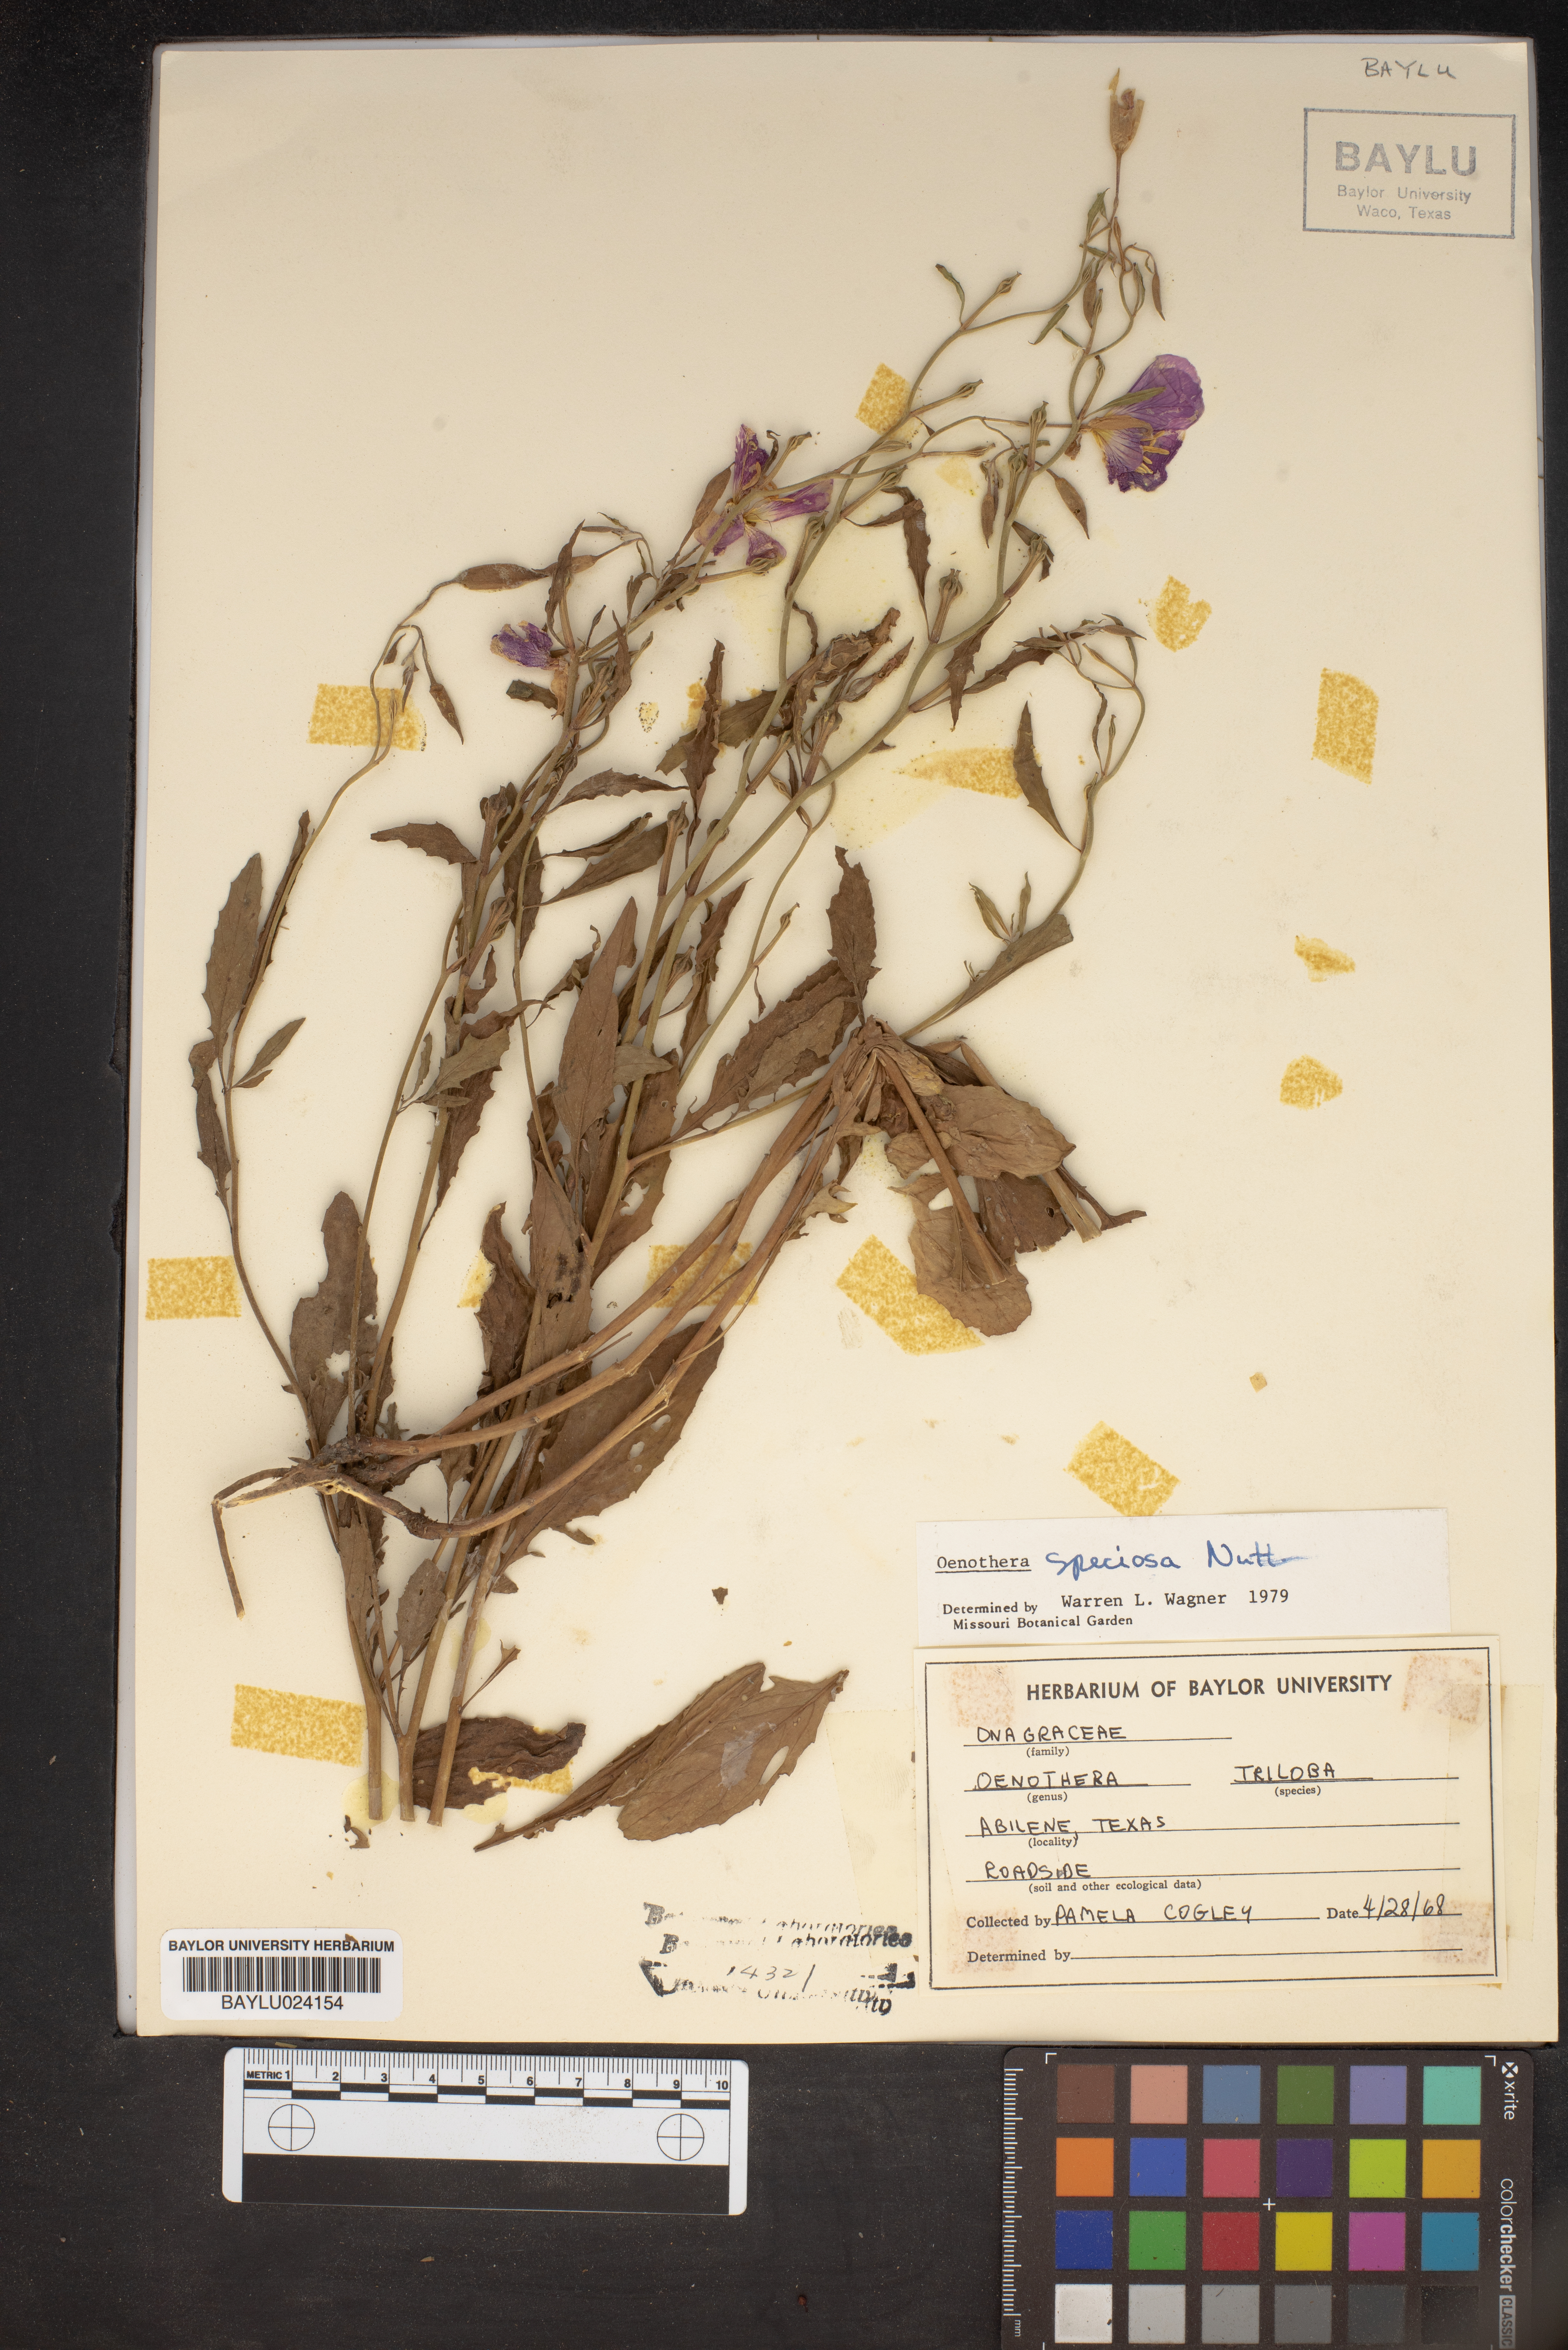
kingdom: Plantae
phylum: Tracheophyta
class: Magnoliopsida
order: Myrtales
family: Onagraceae
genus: Oenothera
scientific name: Oenothera speciosa
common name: White evening-primrose
